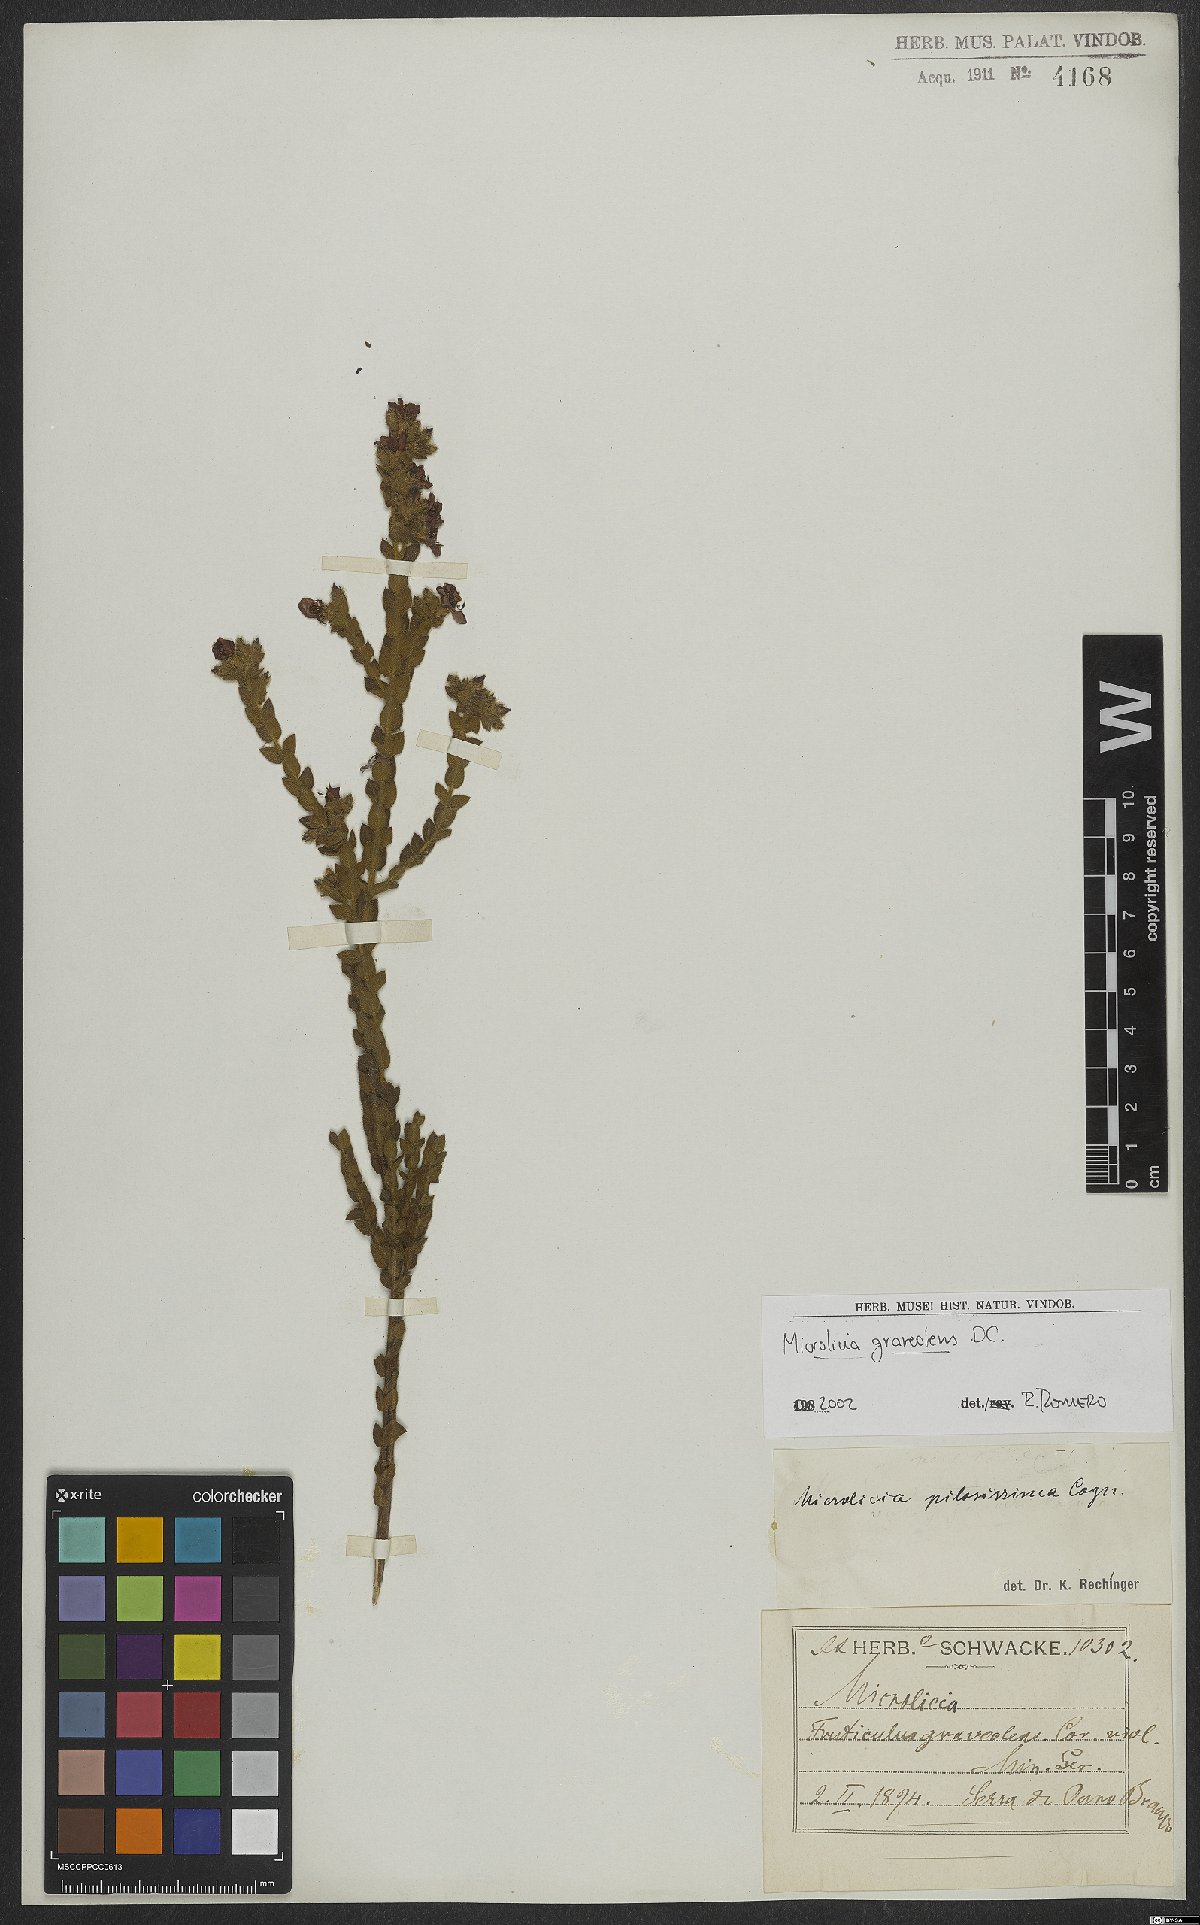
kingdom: Plantae
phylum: Tracheophyta
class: Magnoliopsida
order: Myrtales
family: Melastomataceae
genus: Microlicia
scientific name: Microlicia graveolens
